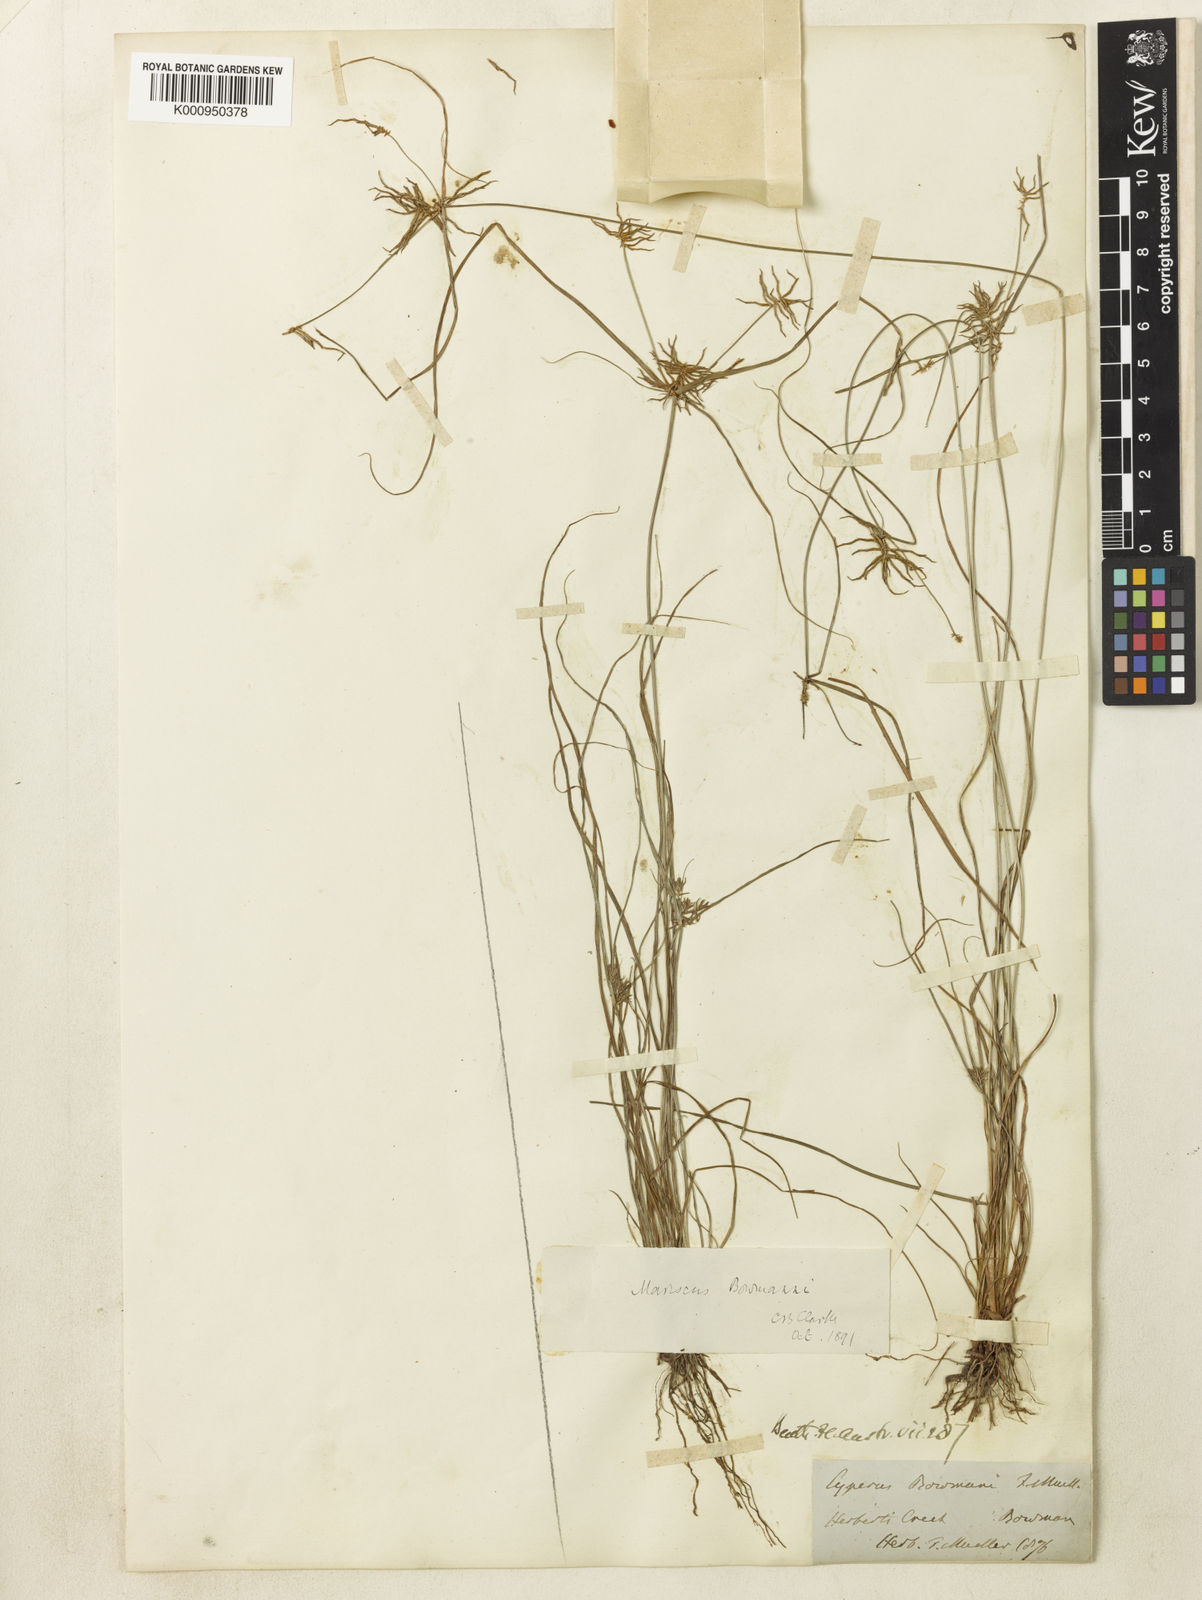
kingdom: Plantae
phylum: Tracheophyta
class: Liliopsida
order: Poales
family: Cyperaceae
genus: Cyperus
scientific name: Cyperus
